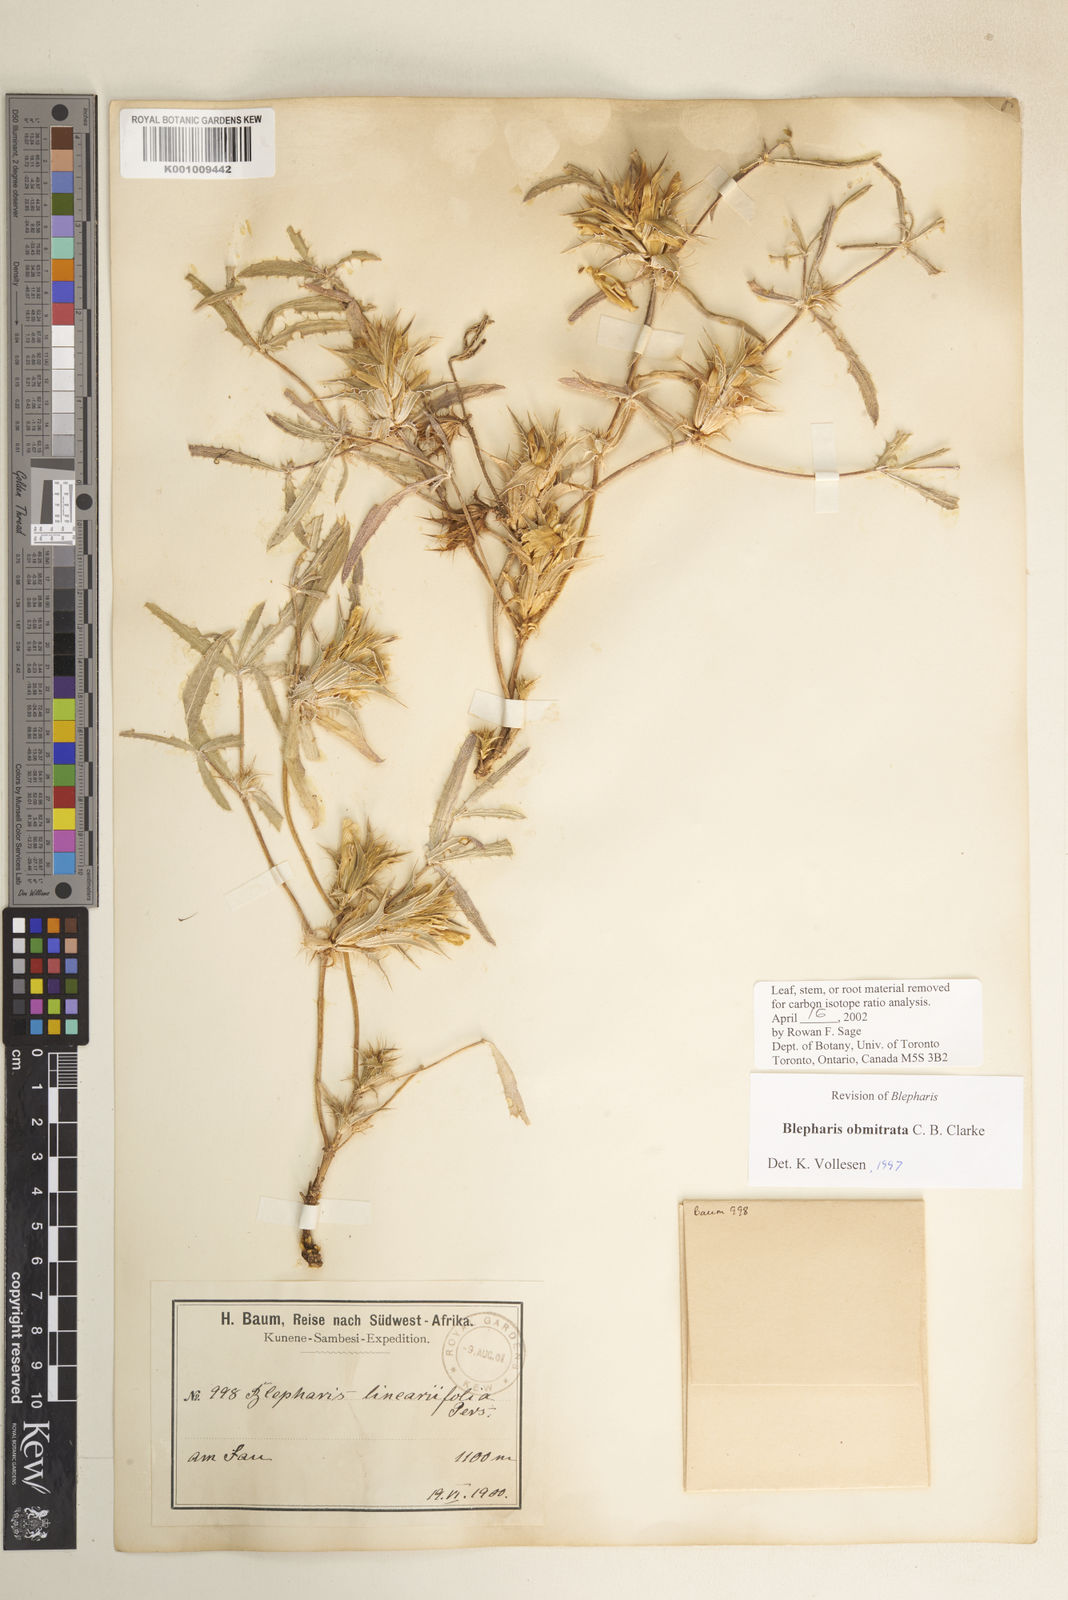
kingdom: Plantae
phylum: Tracheophyta
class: Magnoliopsida
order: Lamiales
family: Acanthaceae
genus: Blepharis
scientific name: Blepharis obmitrata
